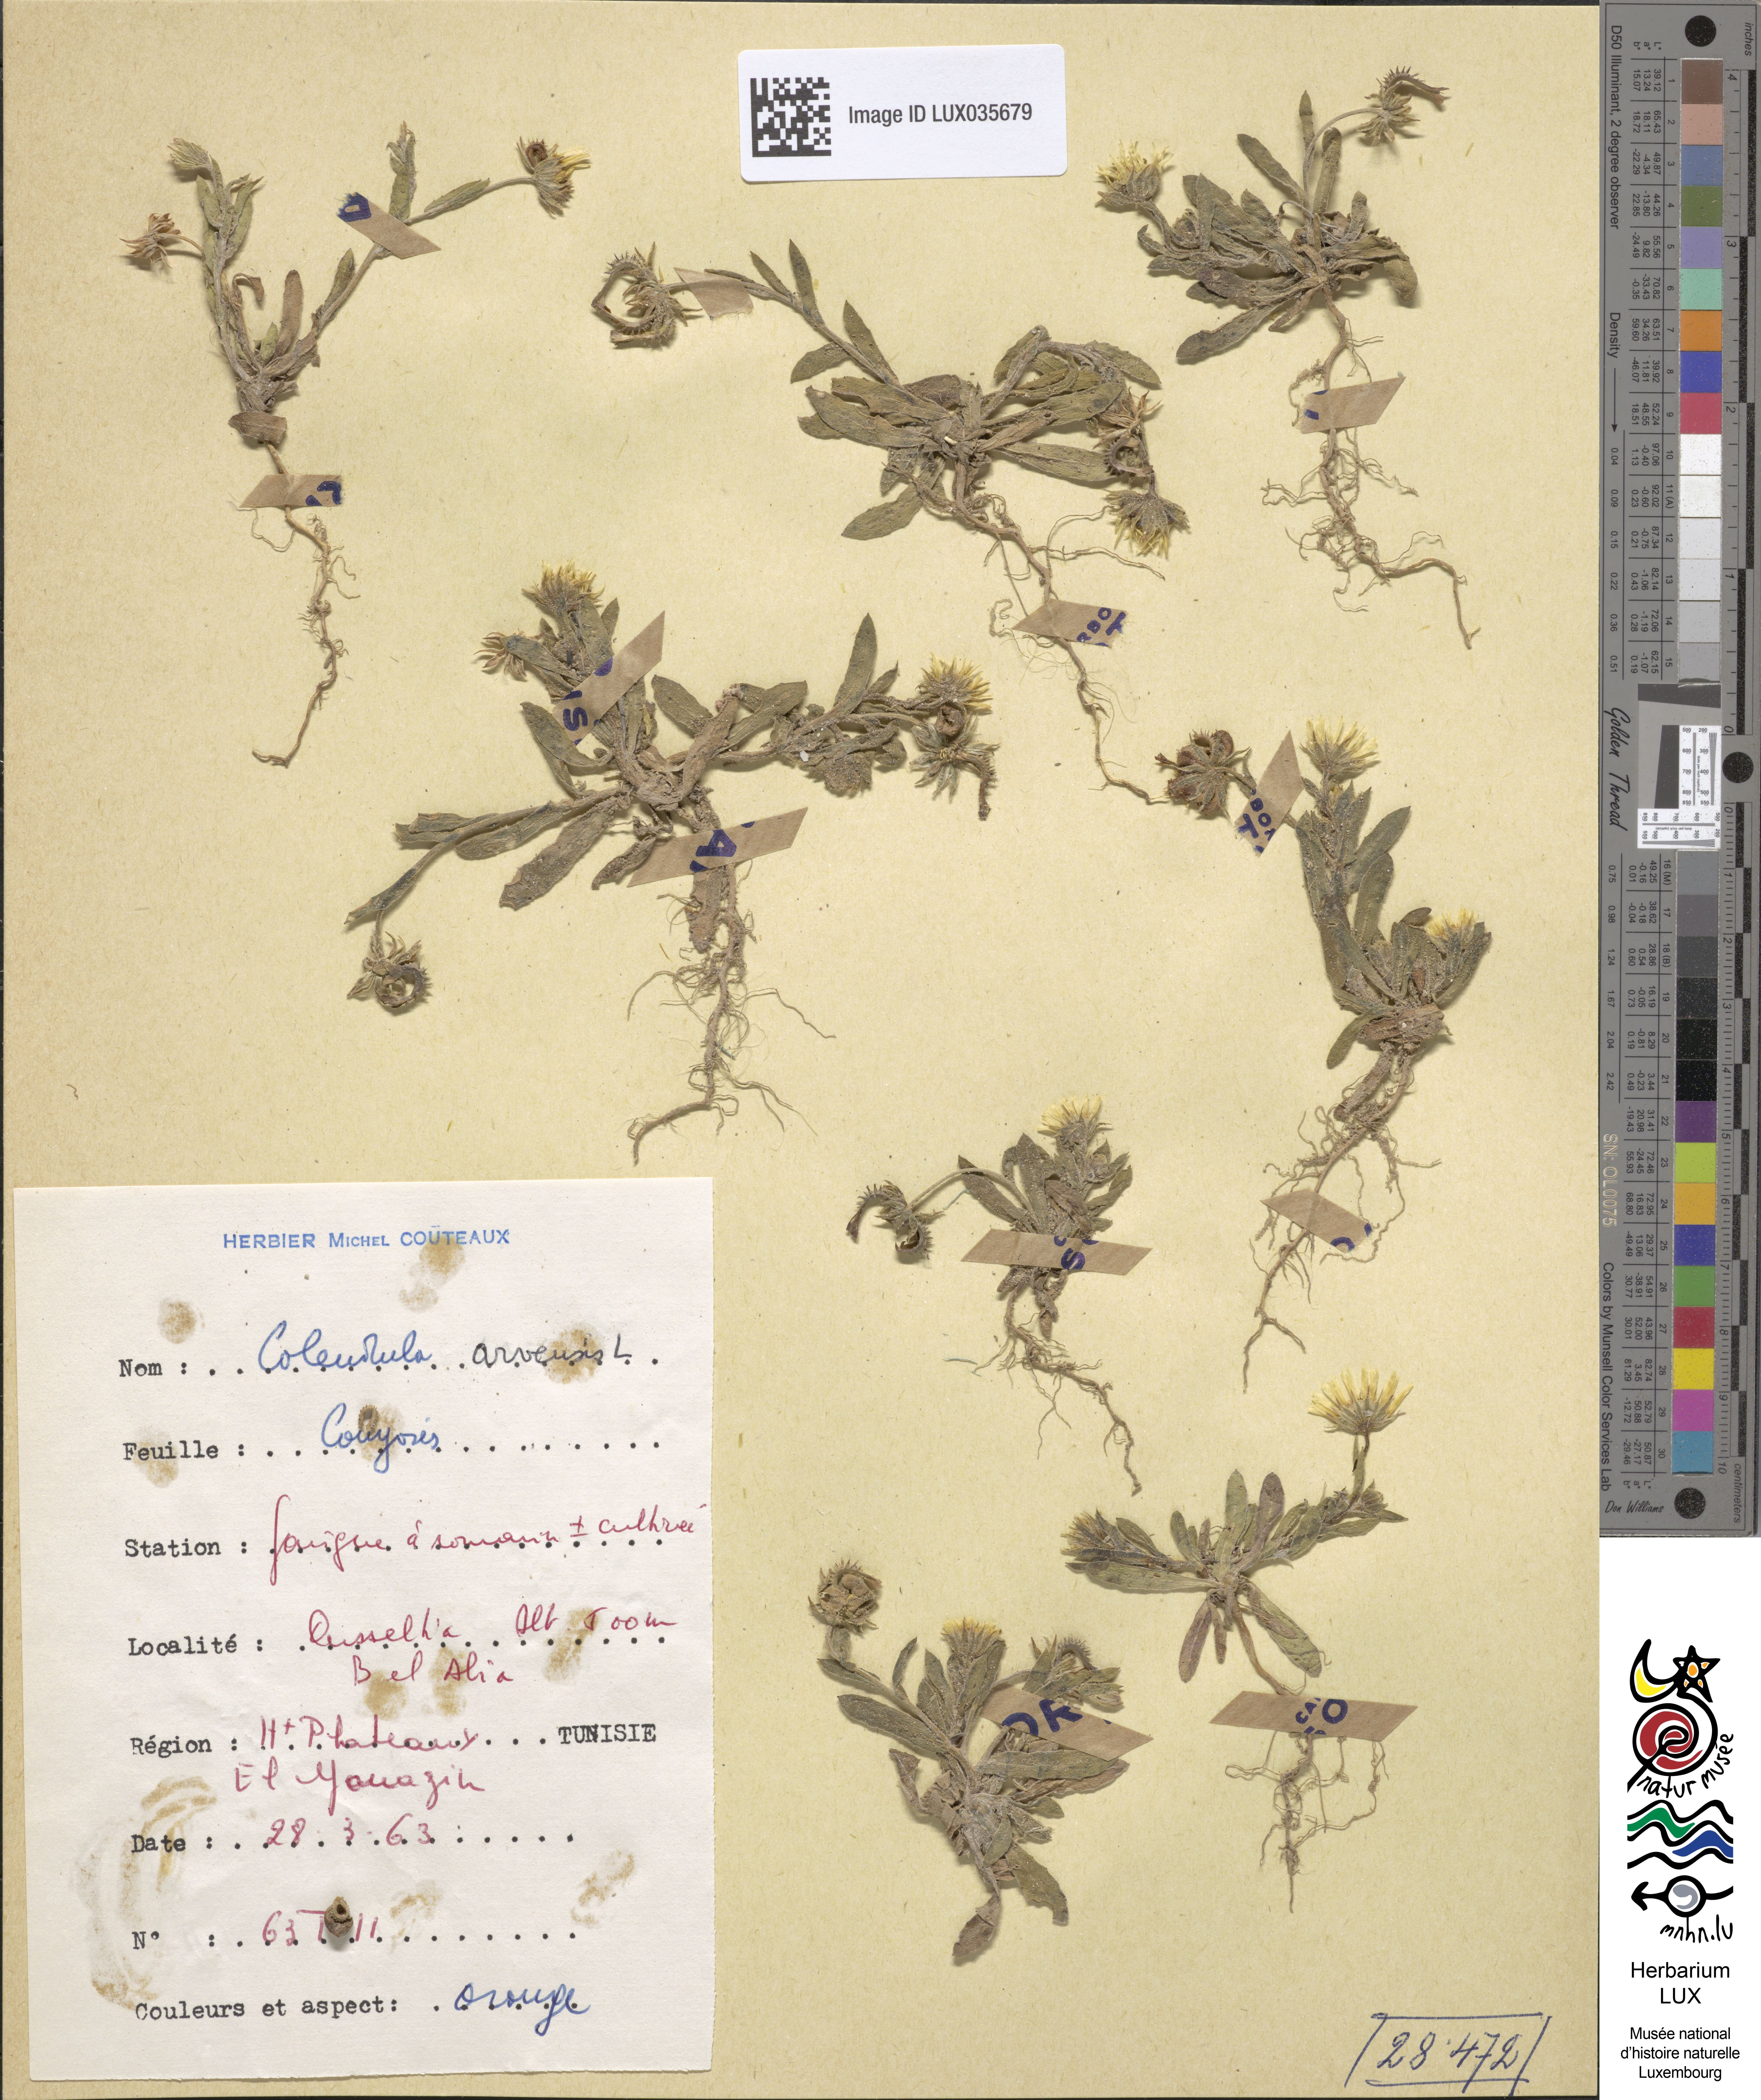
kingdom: Plantae
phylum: Tracheophyta
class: Magnoliopsida
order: Asterales
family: Asteraceae
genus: Calendula
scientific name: Calendula arvensis
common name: Field marigold
